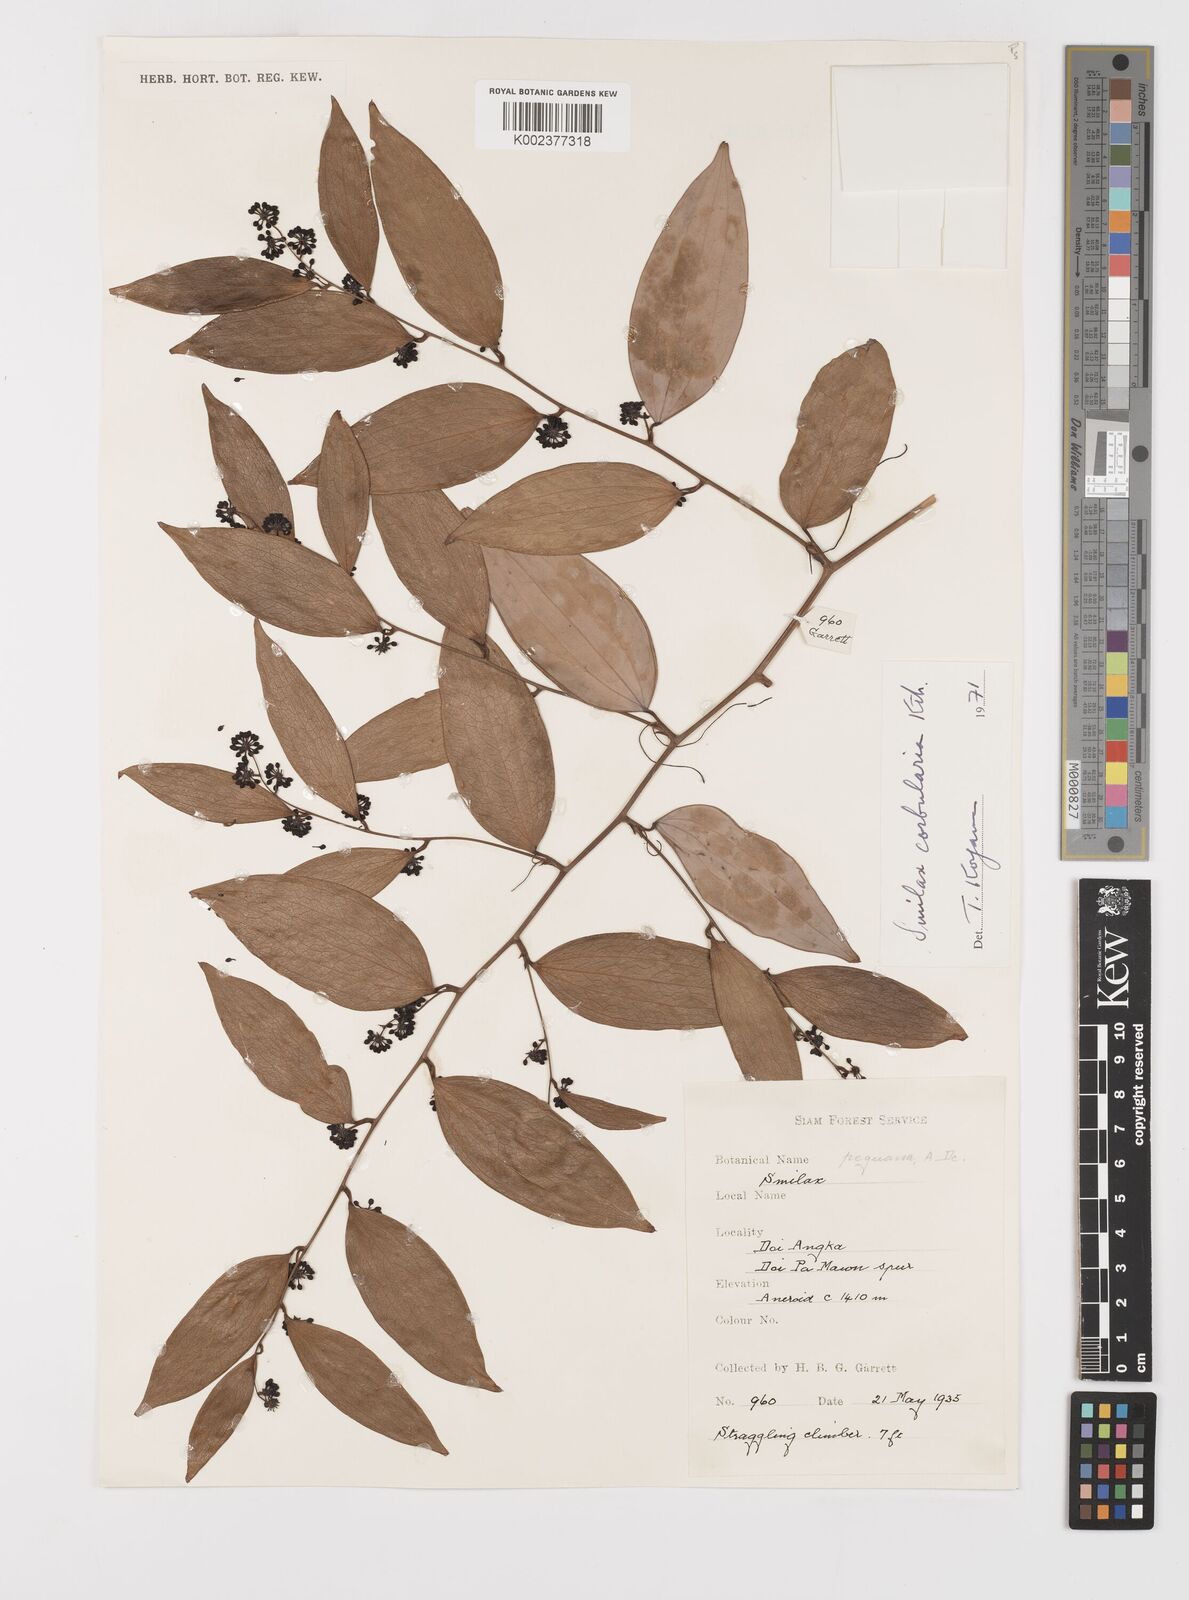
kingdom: Plantae
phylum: Tracheophyta
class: Liliopsida
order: Liliales
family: Smilacaceae
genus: Smilax
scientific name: Smilax corbularia
